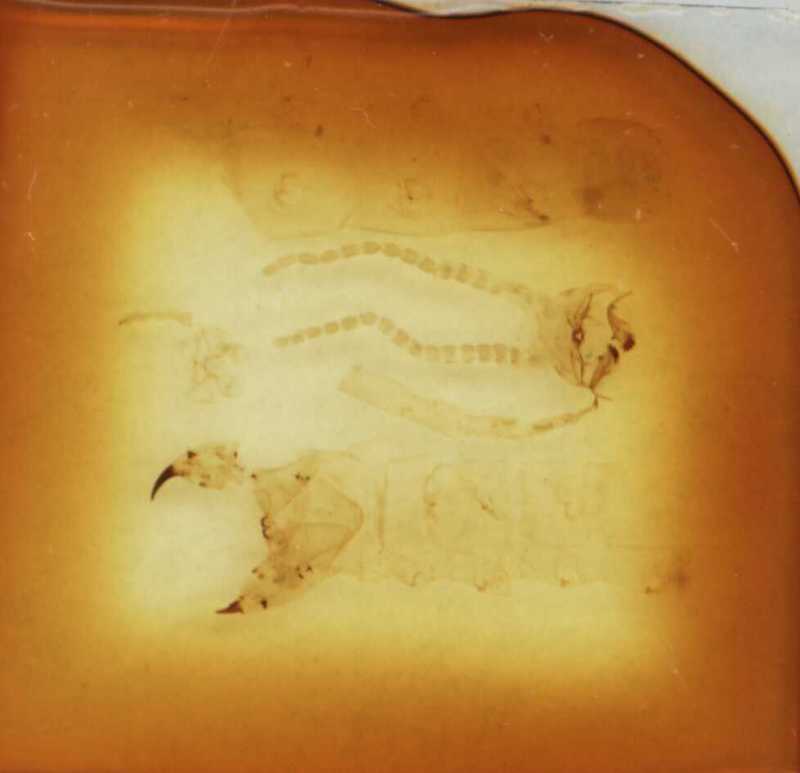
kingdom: Animalia
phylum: Arthropoda
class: Chilopoda
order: Geophilomorpha
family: Gonibregmatidae
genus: Trachycormocephalus
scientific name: Trachycormocephalus
